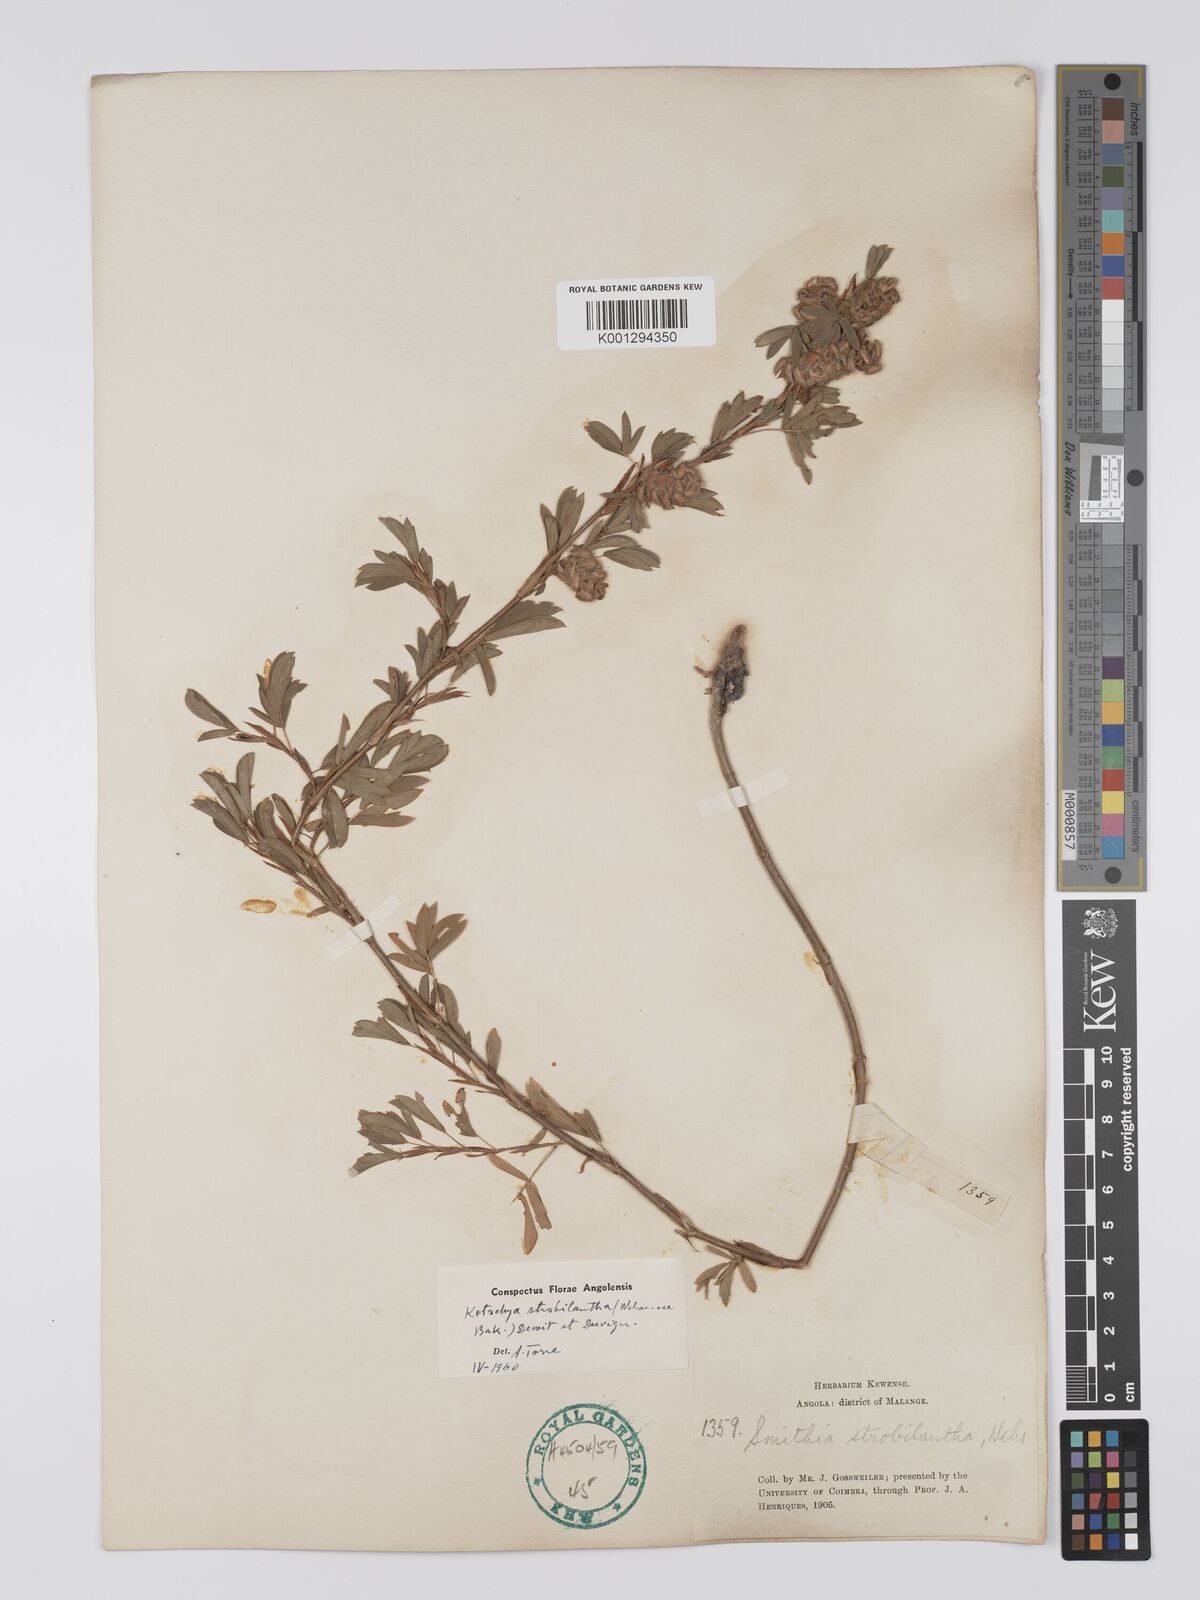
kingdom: Plantae
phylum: Tracheophyta
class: Magnoliopsida
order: Fabales
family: Fabaceae
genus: Kotschya
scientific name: Kotschya strobilantha
